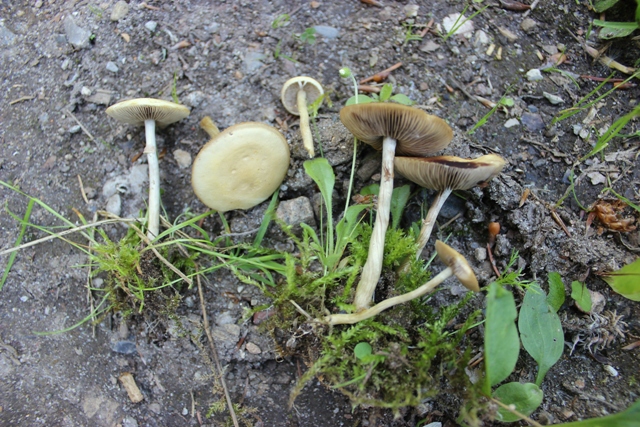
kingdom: Fungi
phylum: Basidiomycota
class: Agaricomycetes
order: Agaricales
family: Strophariaceae
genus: Agrocybe
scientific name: Agrocybe praecox
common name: tidlig agerhat
